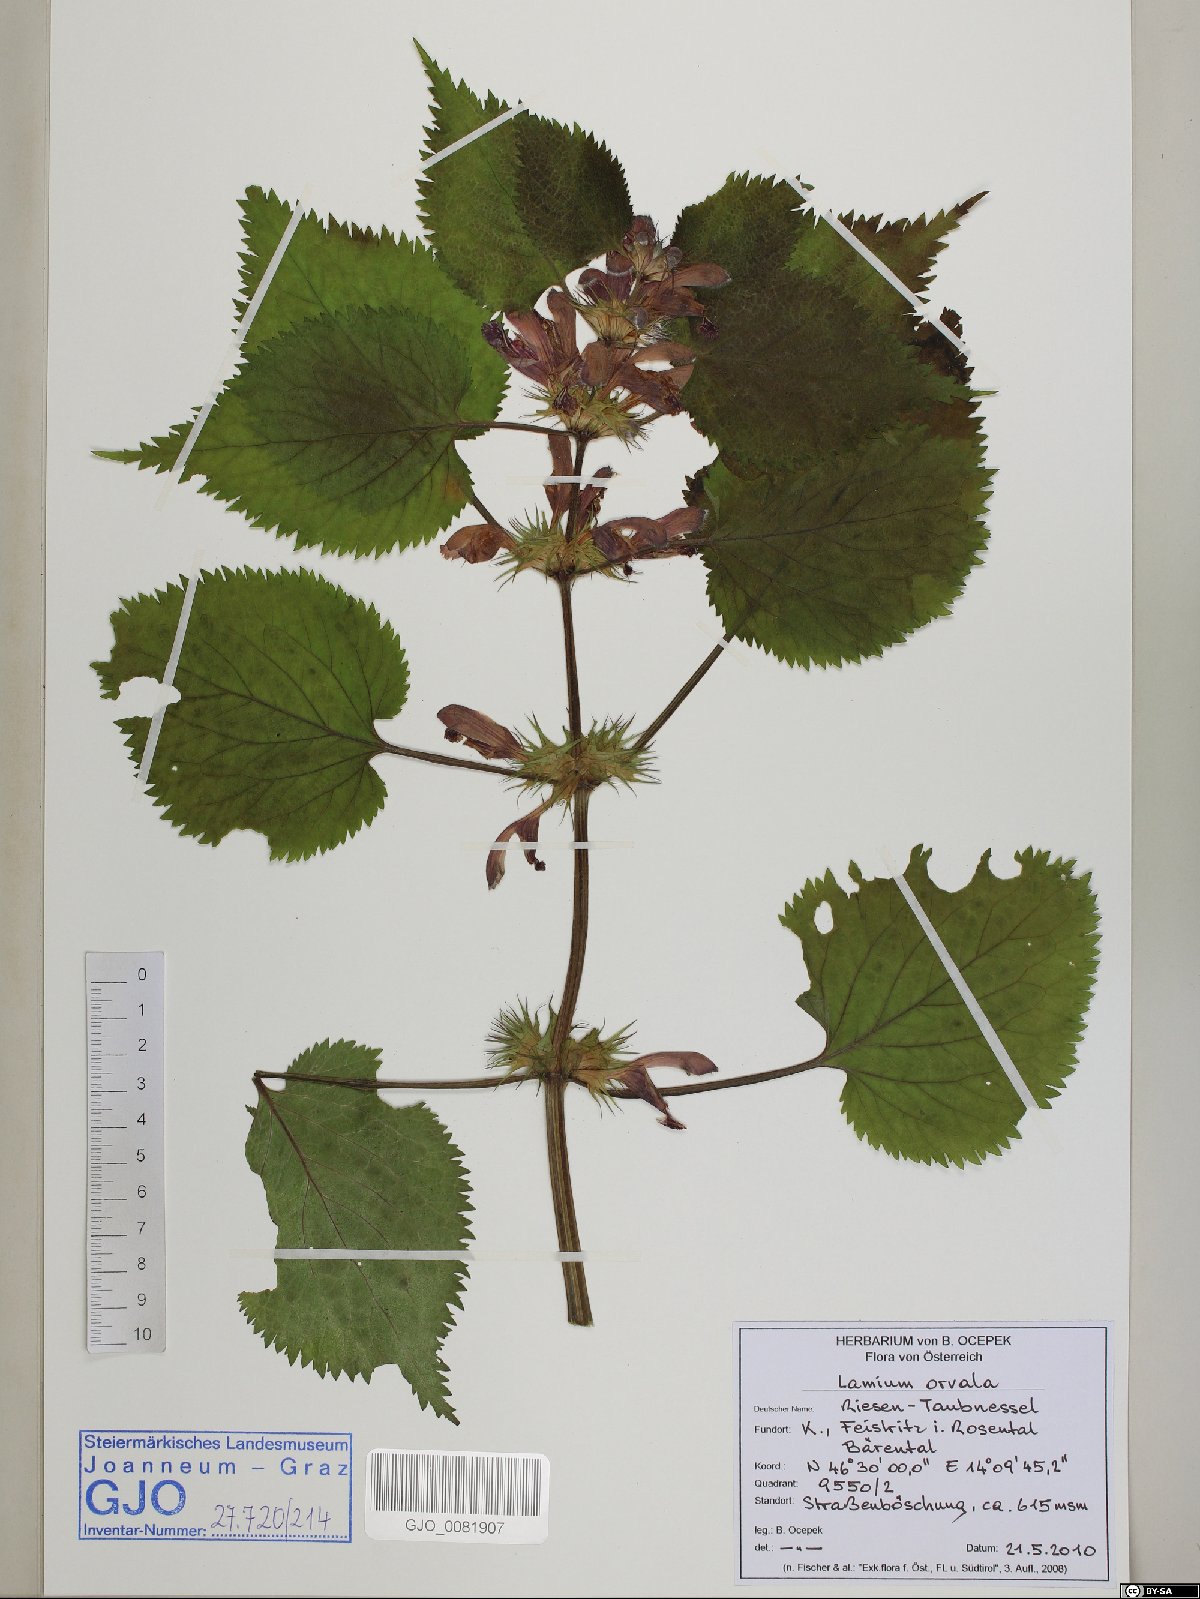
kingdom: Plantae
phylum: Tracheophyta
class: Magnoliopsida
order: Lamiales
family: Lamiaceae
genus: Lamium
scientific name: Lamium orvala
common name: Balm-leaved archangel
